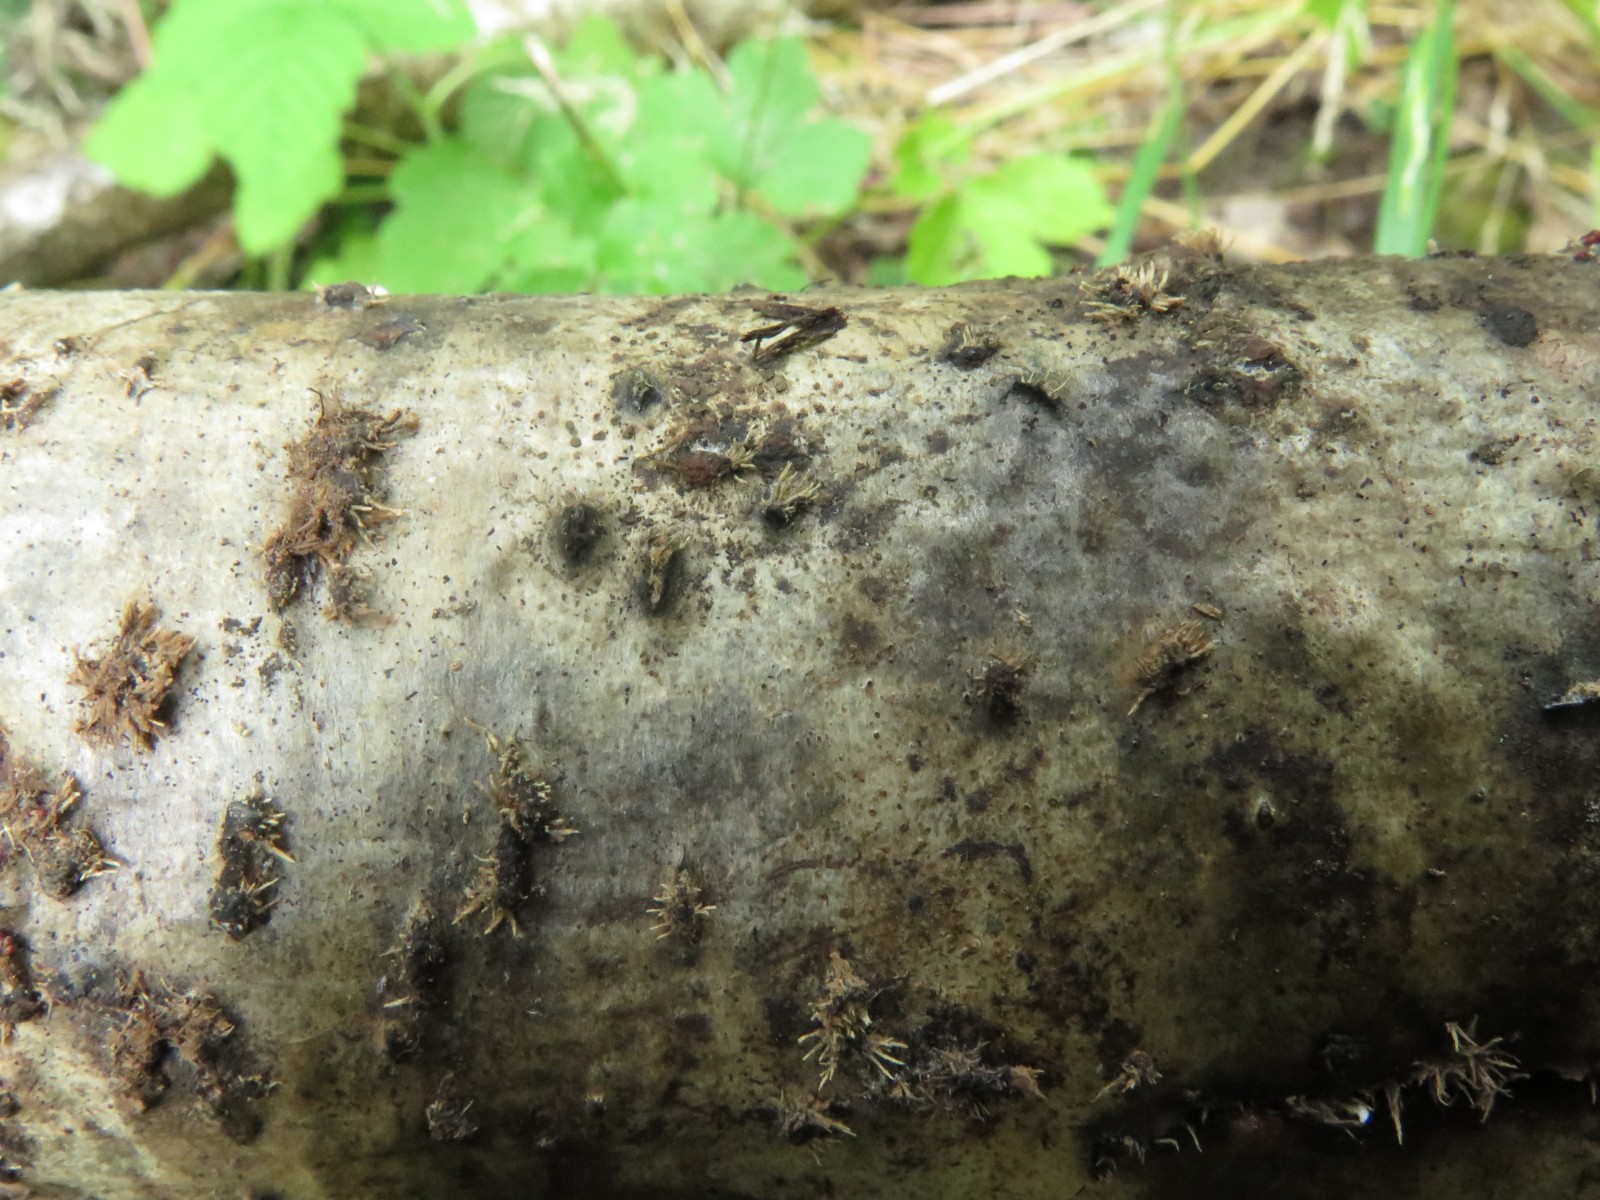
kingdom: Fungi
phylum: Ascomycota
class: Sordariomycetes
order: Xylariales
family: Hypoxylaceae
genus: Hypoxylon
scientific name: Hypoxylon howeanum
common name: halvkugleformet kulbær
